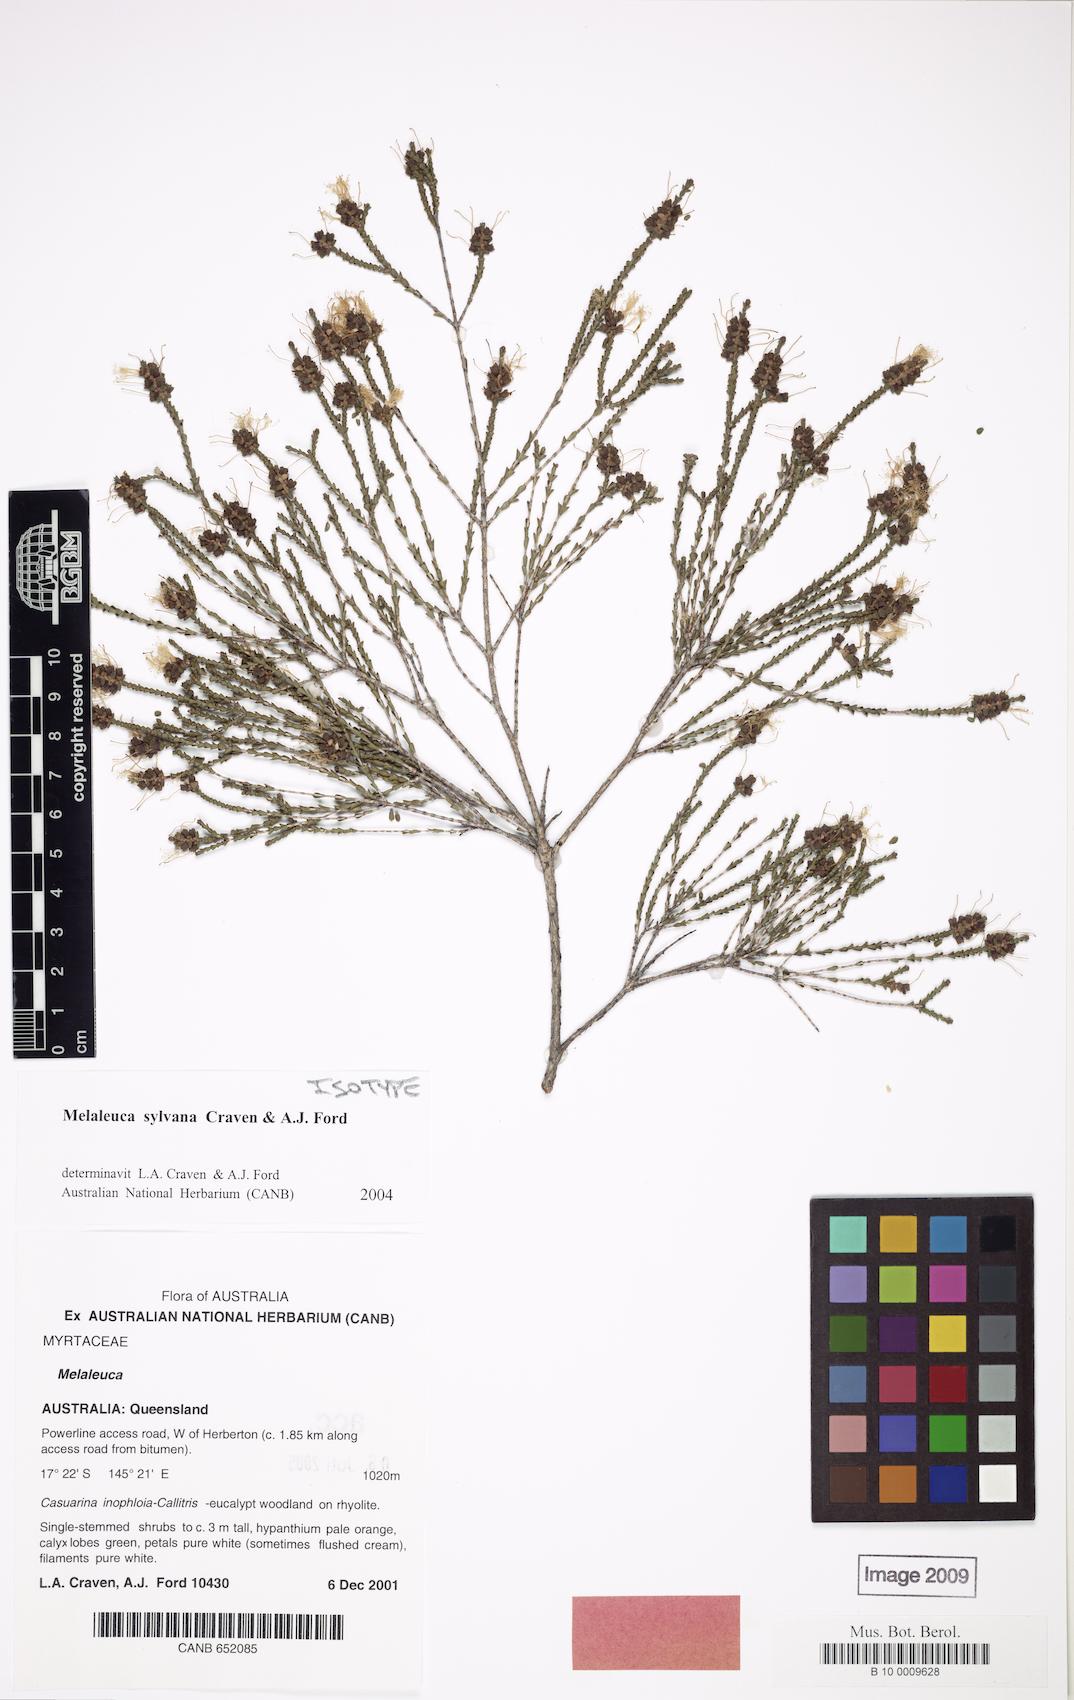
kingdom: Plantae
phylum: Tracheophyta
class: Magnoliopsida
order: Myrtales
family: Myrtaceae
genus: Melaleuca
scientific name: Melaleuca sylvana
